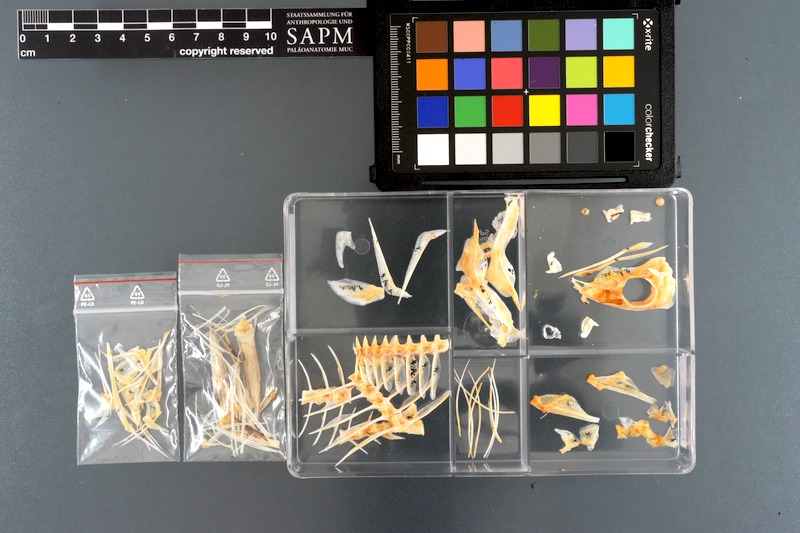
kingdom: Animalia
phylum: Chordata
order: Perciformes
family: Acanthuridae
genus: Acanthurus
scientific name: Acanthurus sohal
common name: Red sea surgeonfish
